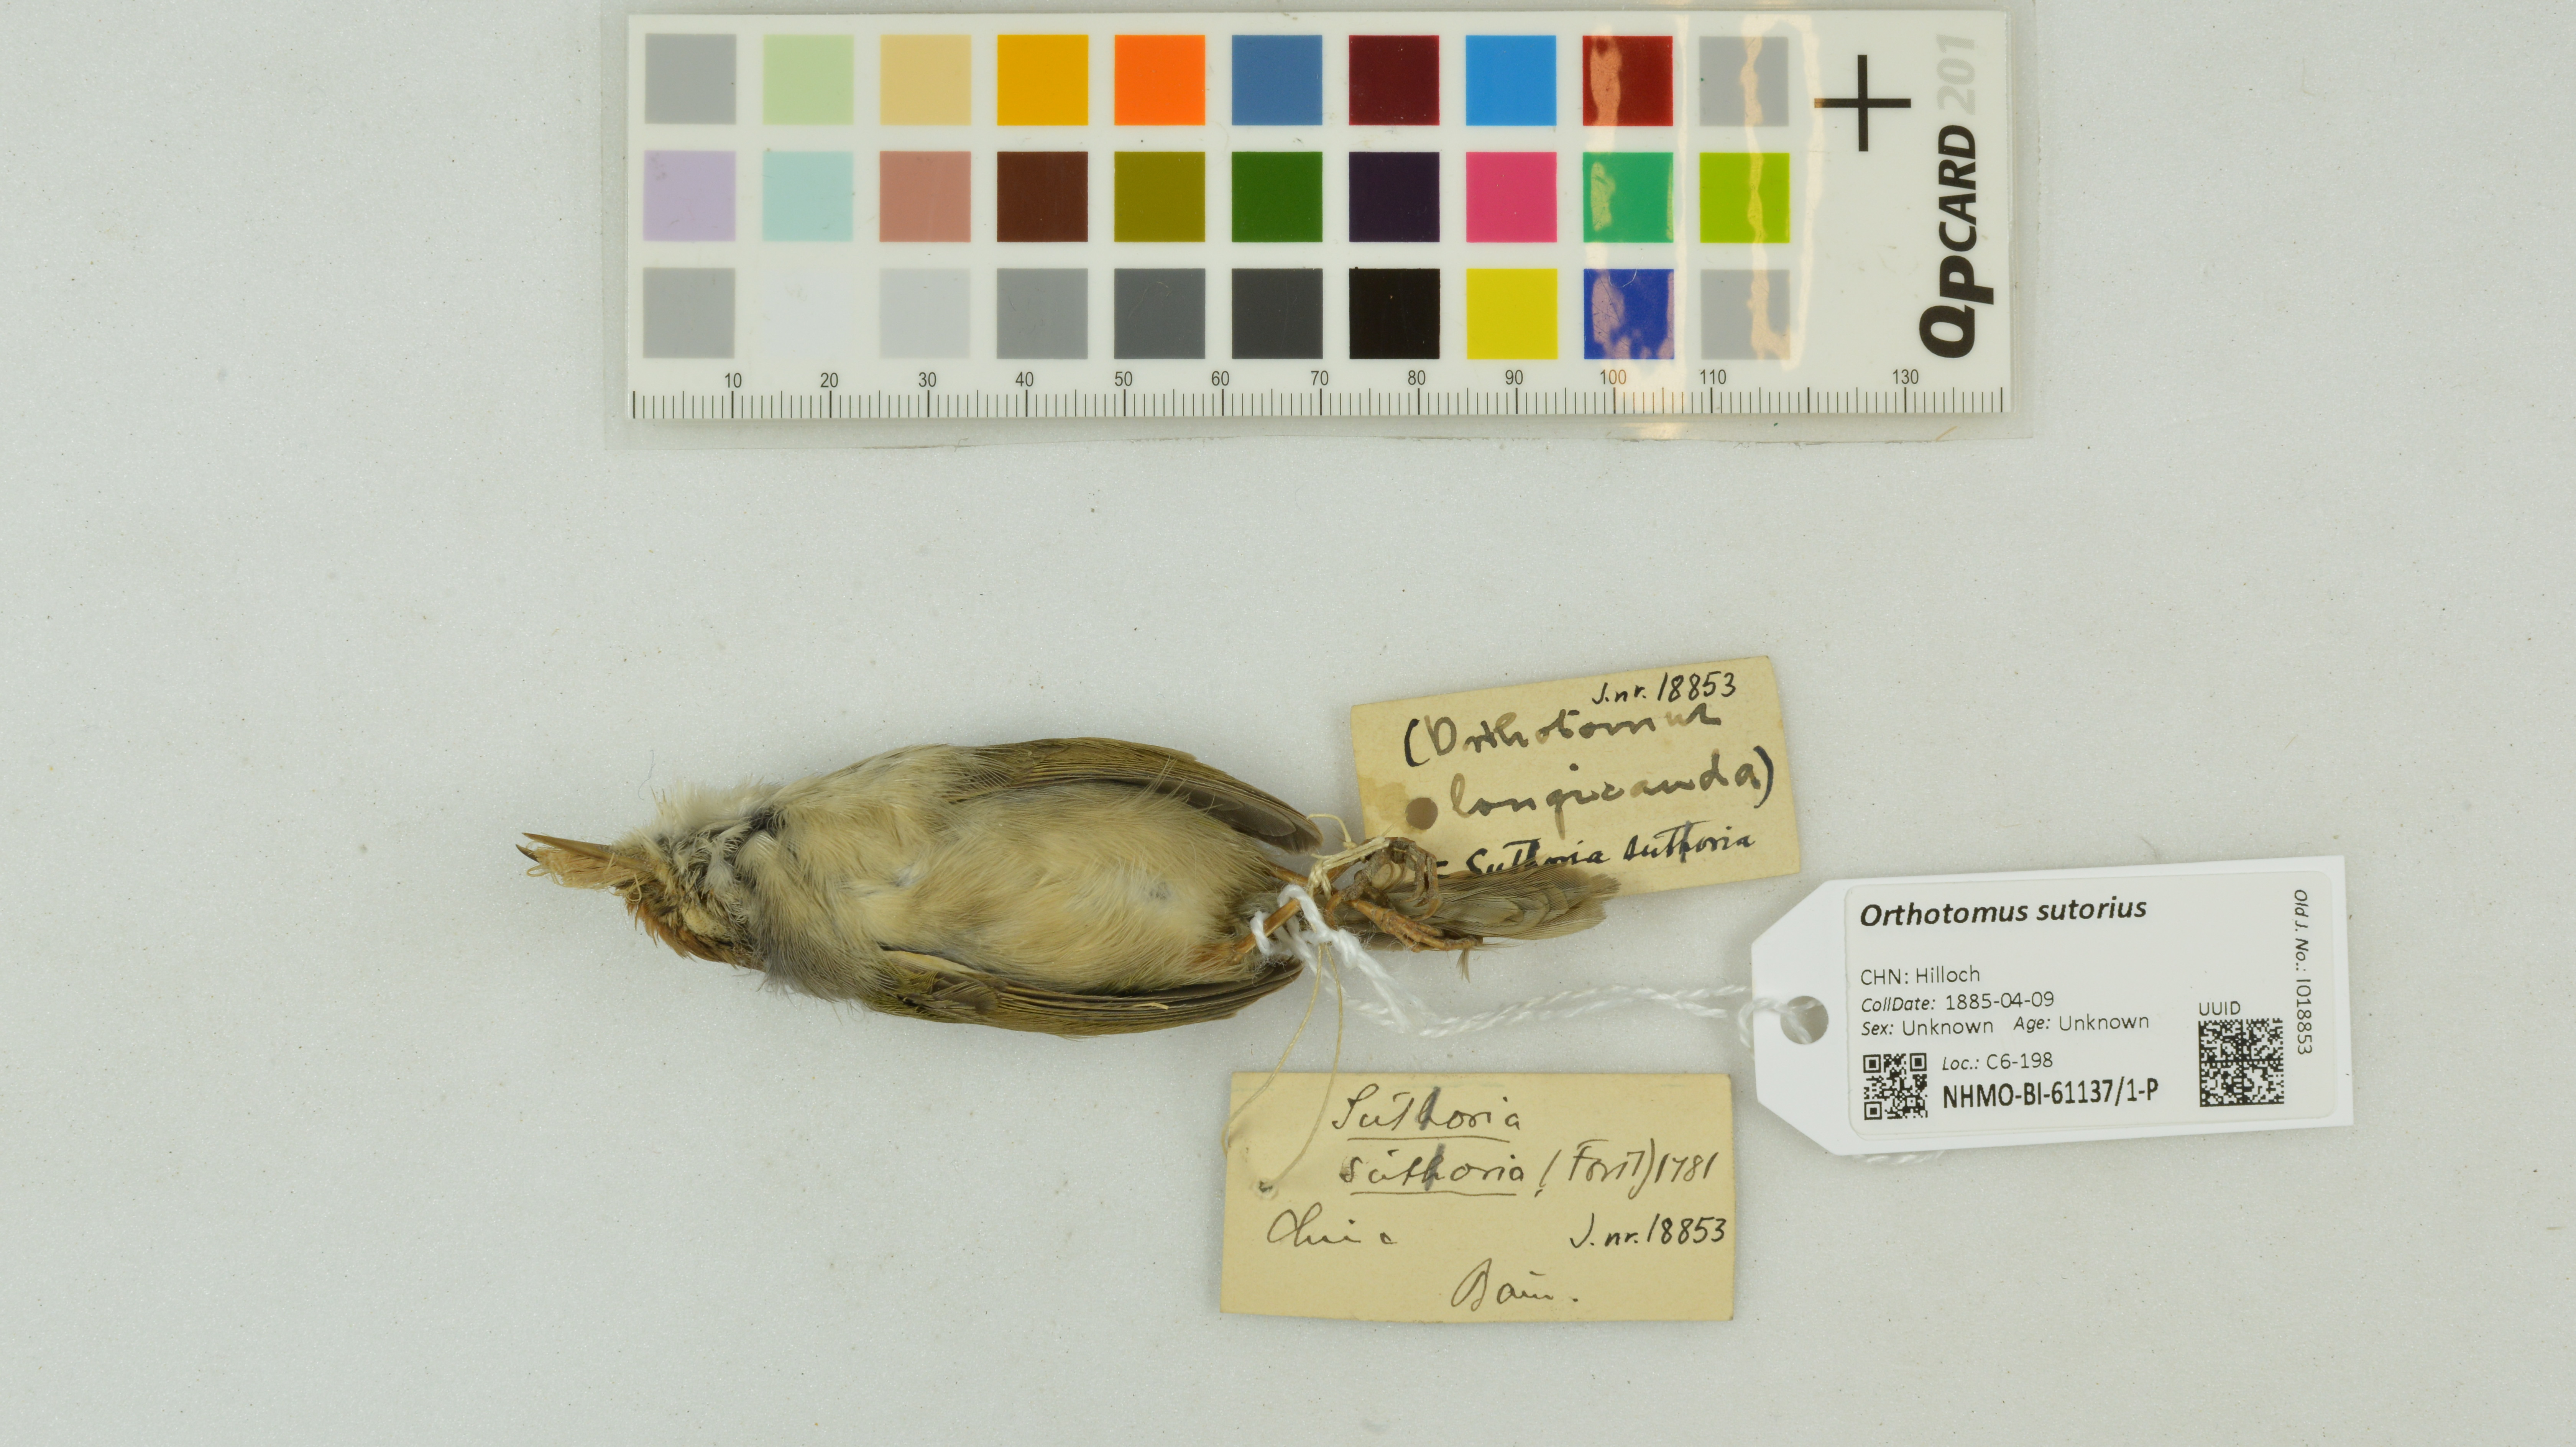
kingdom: Animalia
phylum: Chordata
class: Aves
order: Passeriformes
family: Cisticolidae
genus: Orthotomus
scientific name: Orthotomus sutorius
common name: Common tailorbird
